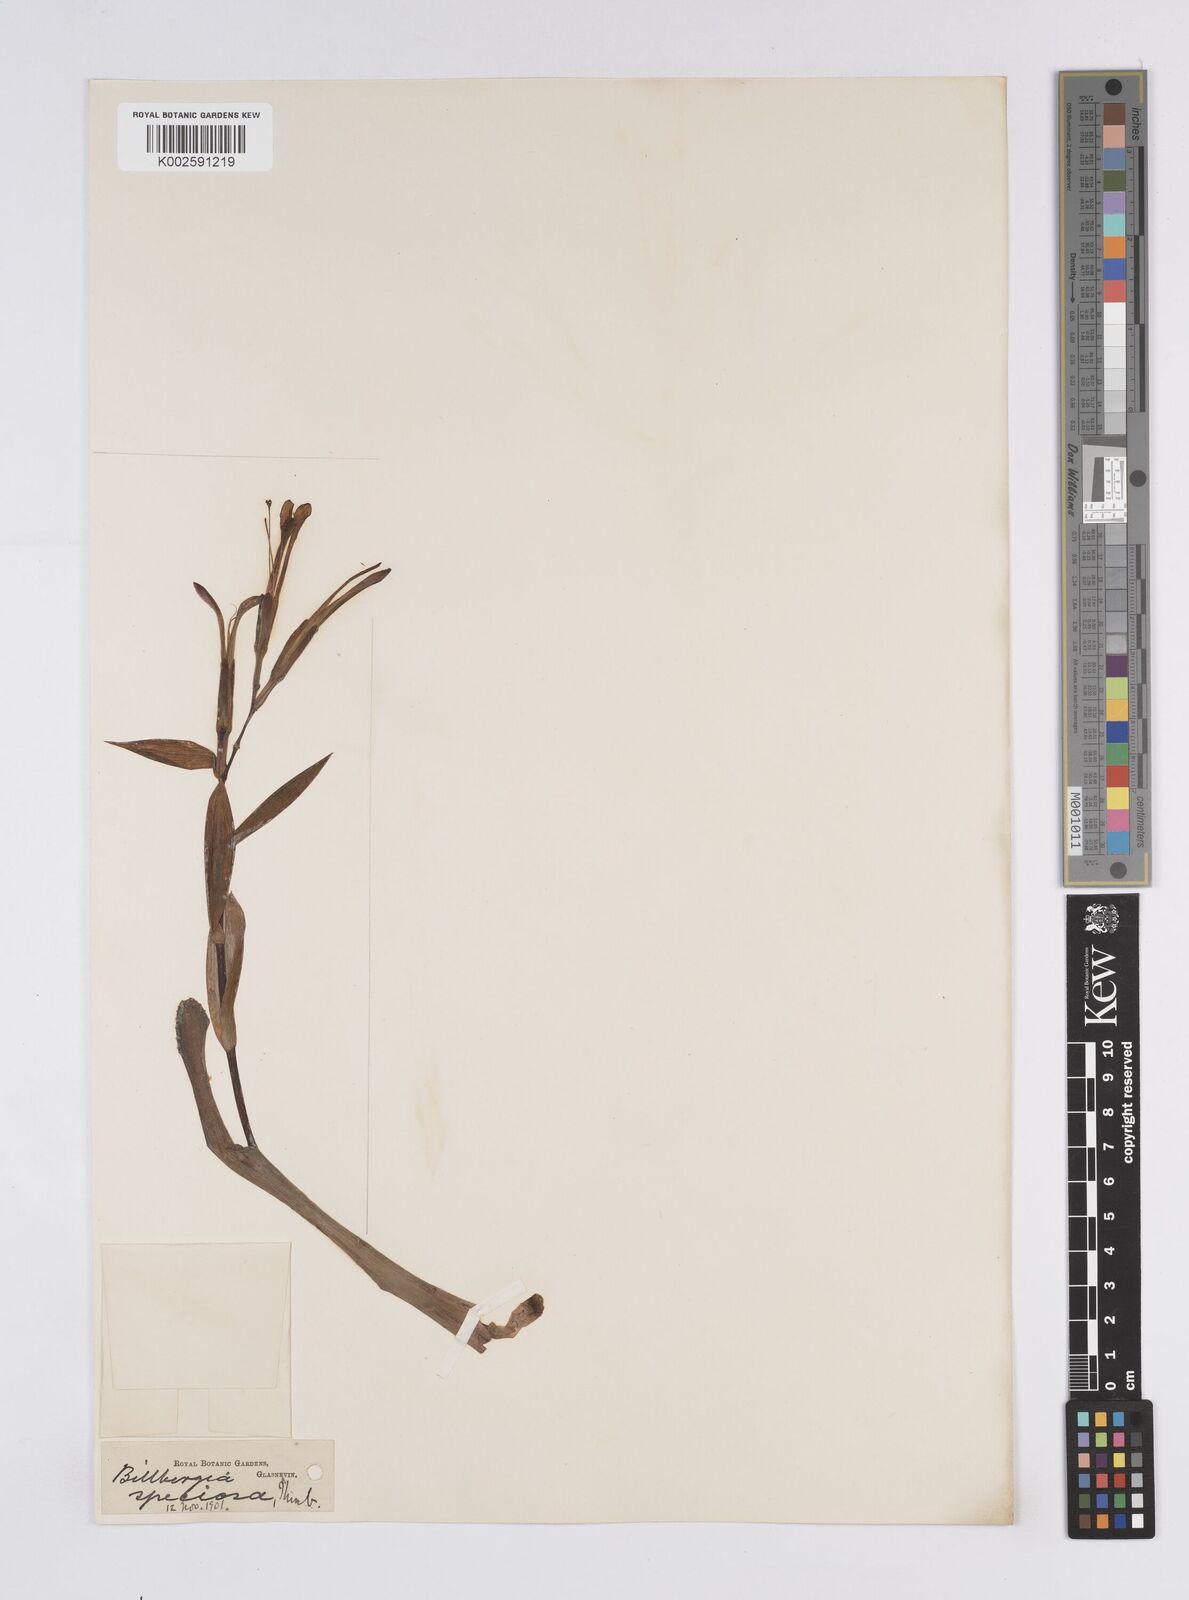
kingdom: Plantae
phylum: Tracheophyta
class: Liliopsida
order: Poales
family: Bromeliaceae
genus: Billbergia
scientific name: Billbergia amoena
